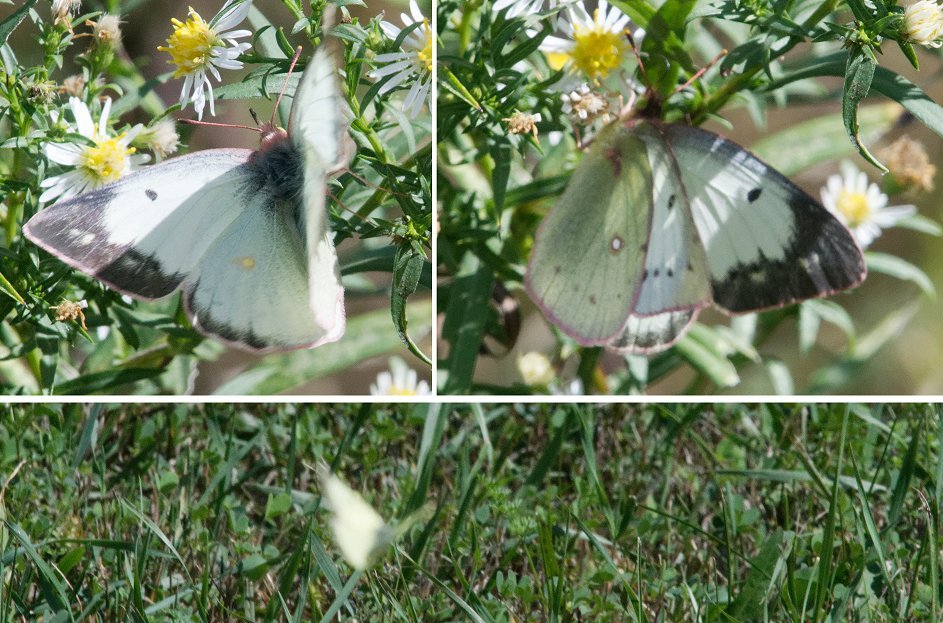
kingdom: Animalia
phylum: Arthropoda
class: Insecta
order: Lepidoptera
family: Pieridae
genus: Colias
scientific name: Colias philodice
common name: Clouded Sulphur
